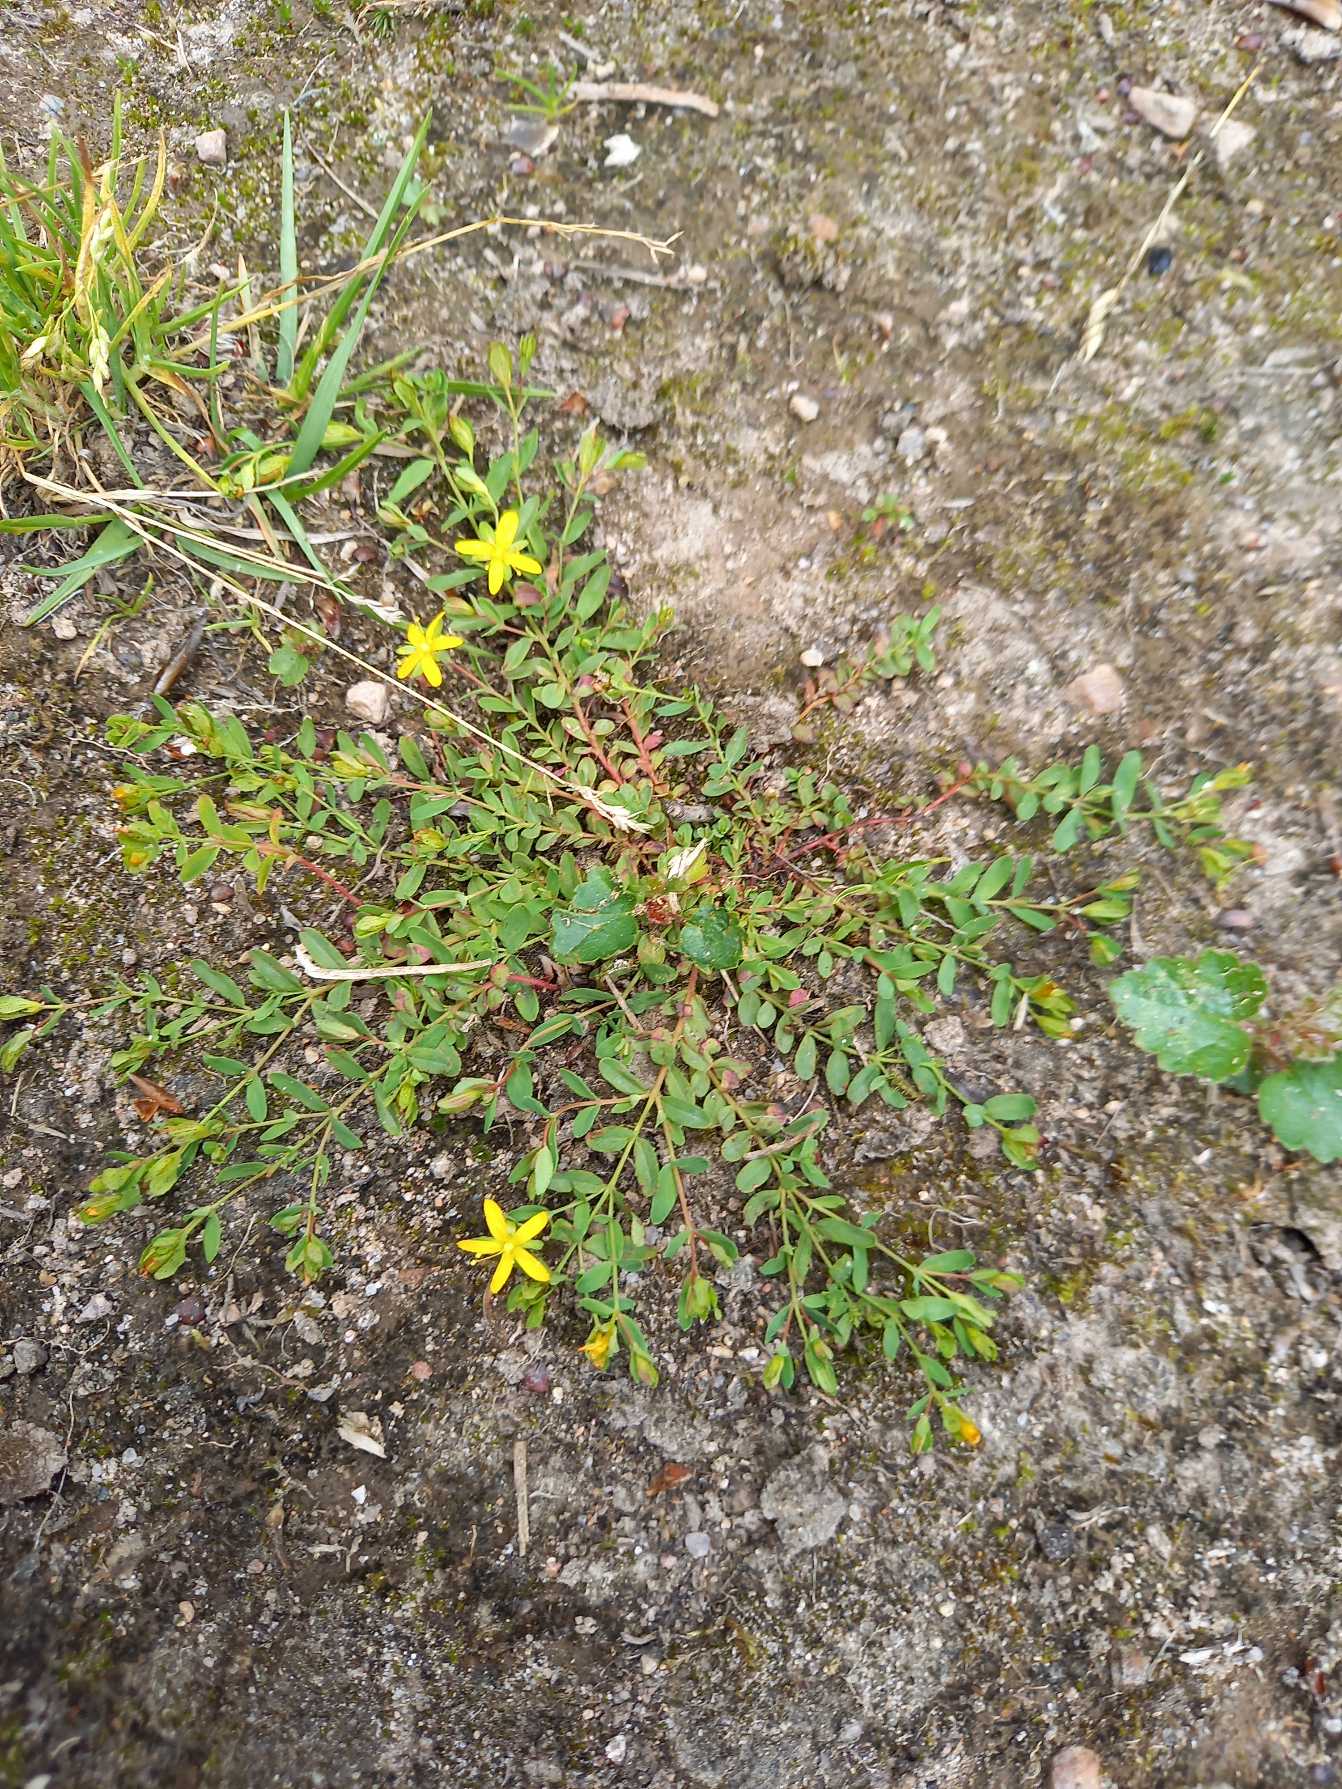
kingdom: Plantae
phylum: Tracheophyta
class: Magnoliopsida
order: Malpighiales
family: Hypericaceae
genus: Hypericum
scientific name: Hypericum humifusum
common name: Dværg-perikon
